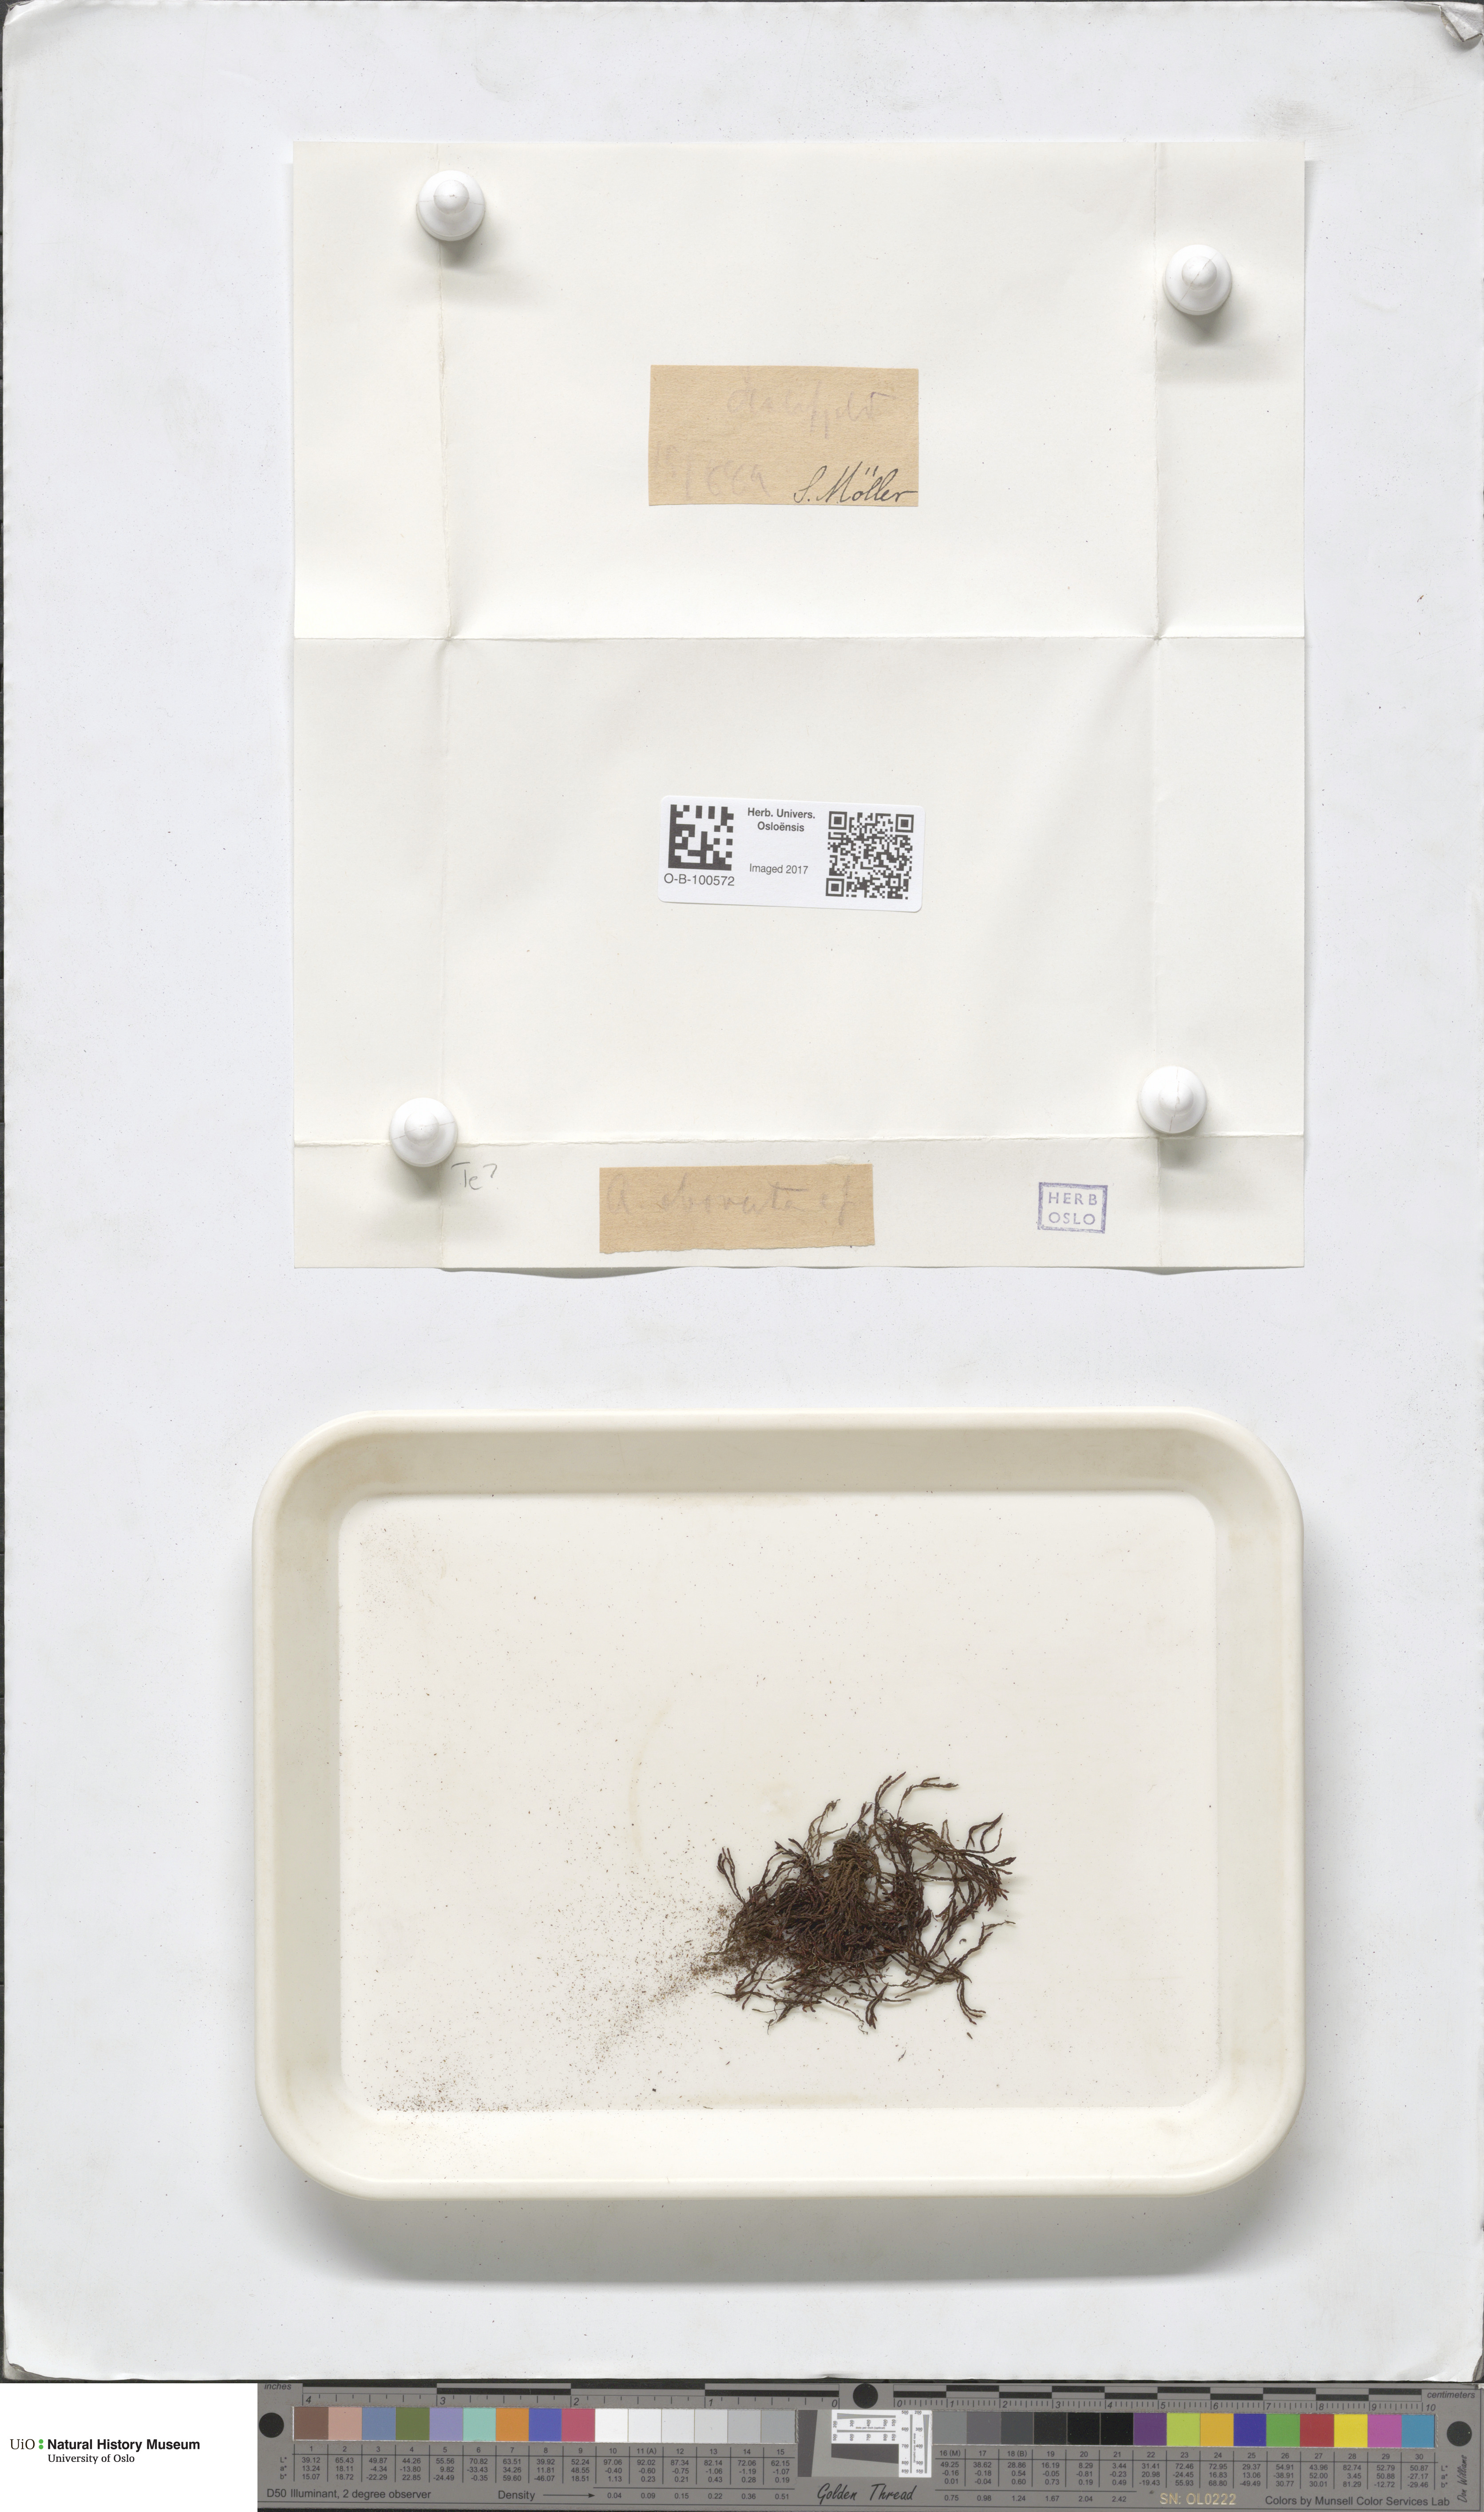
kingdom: Plantae
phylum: Bryophyta
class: Andreaeopsida
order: Andreaeales
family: Andreaeaceae
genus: Andreaea
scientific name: Andreaea alpina
